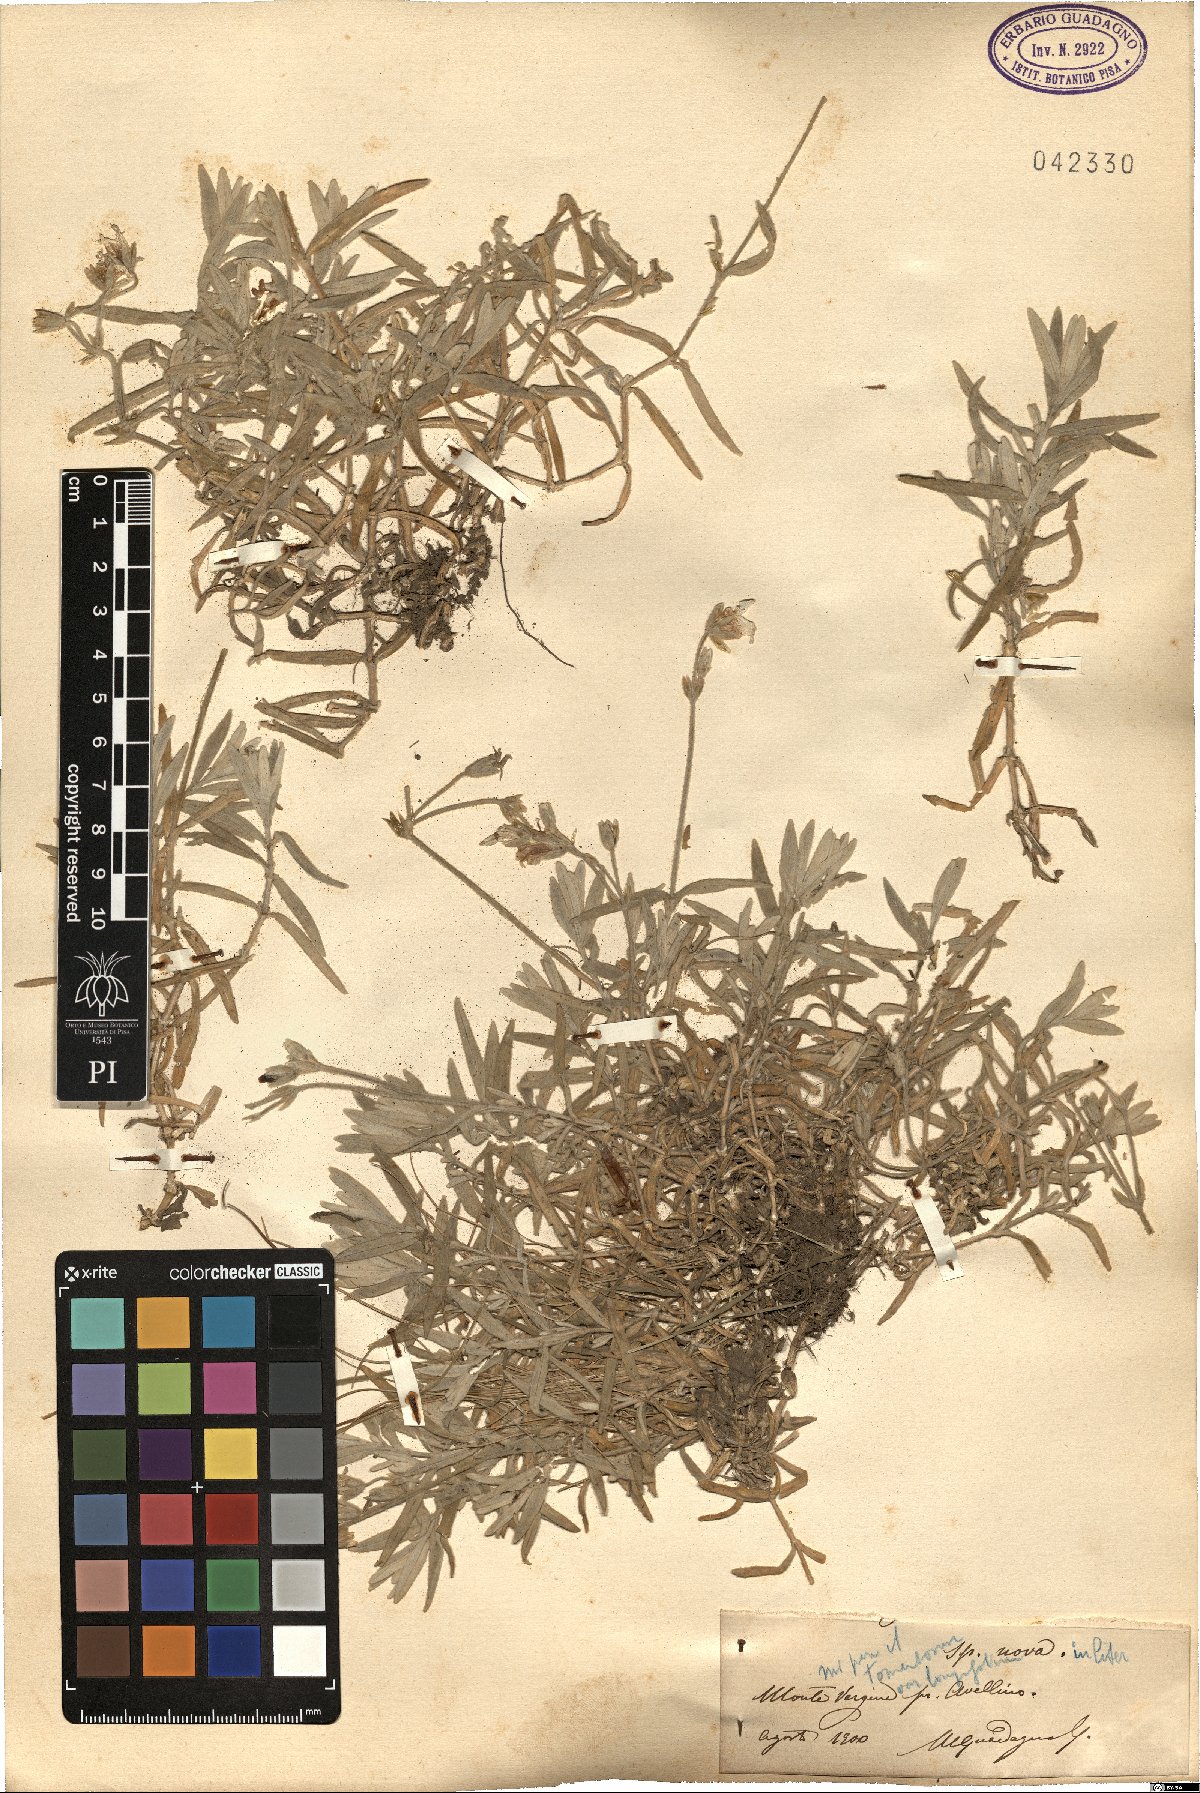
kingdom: Plantae
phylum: Tracheophyta
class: Magnoliopsida
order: Caryophyllales
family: Caryophyllaceae
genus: Cerastium
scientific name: Cerastium tomentosum
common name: Snow-in-summer
